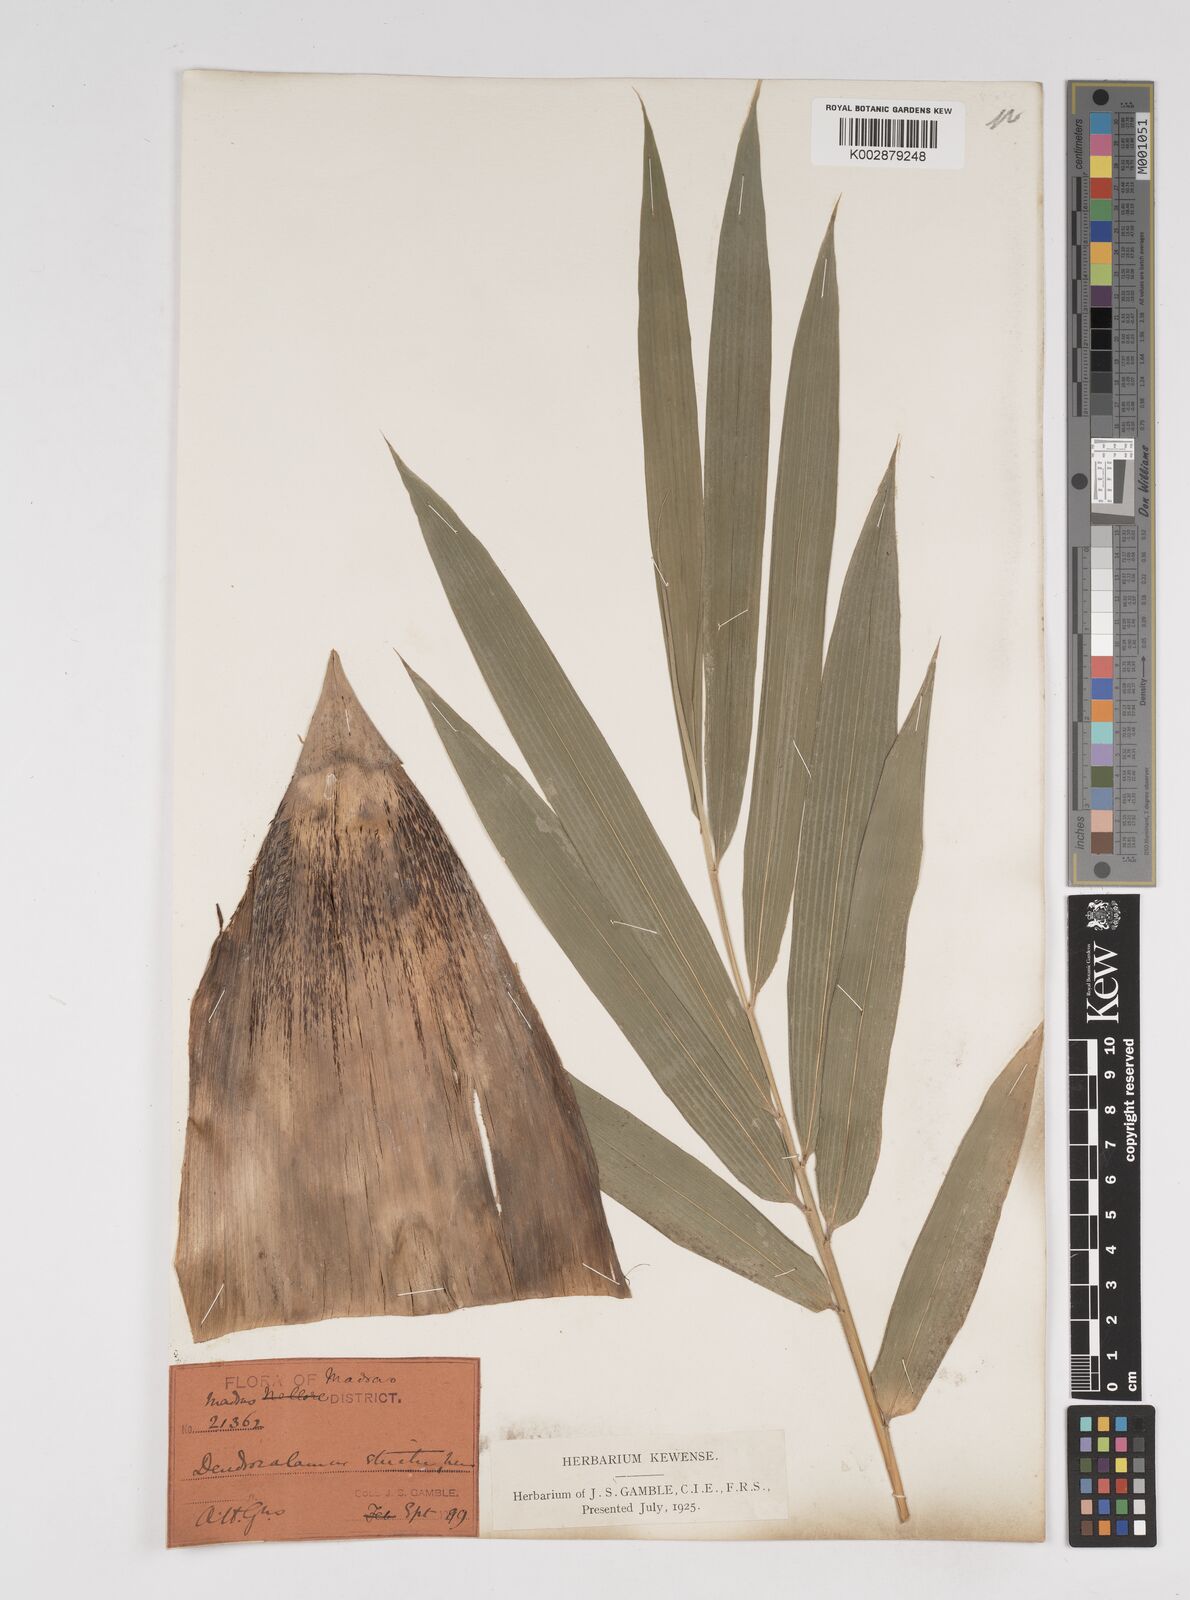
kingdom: Plantae
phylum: Tracheophyta
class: Liliopsida
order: Poales
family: Poaceae
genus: Dendrocalamus
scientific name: Dendrocalamus strictus
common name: Male bamboo
